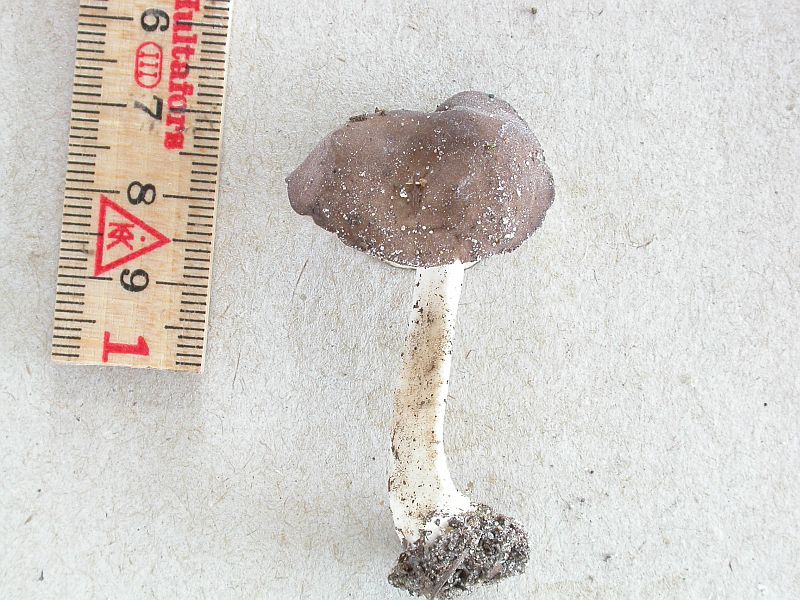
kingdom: Fungi
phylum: Ascomycota
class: Pezizomycetes
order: Pezizales
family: Helvellaceae
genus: Helvella
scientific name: Helvella bicolor
